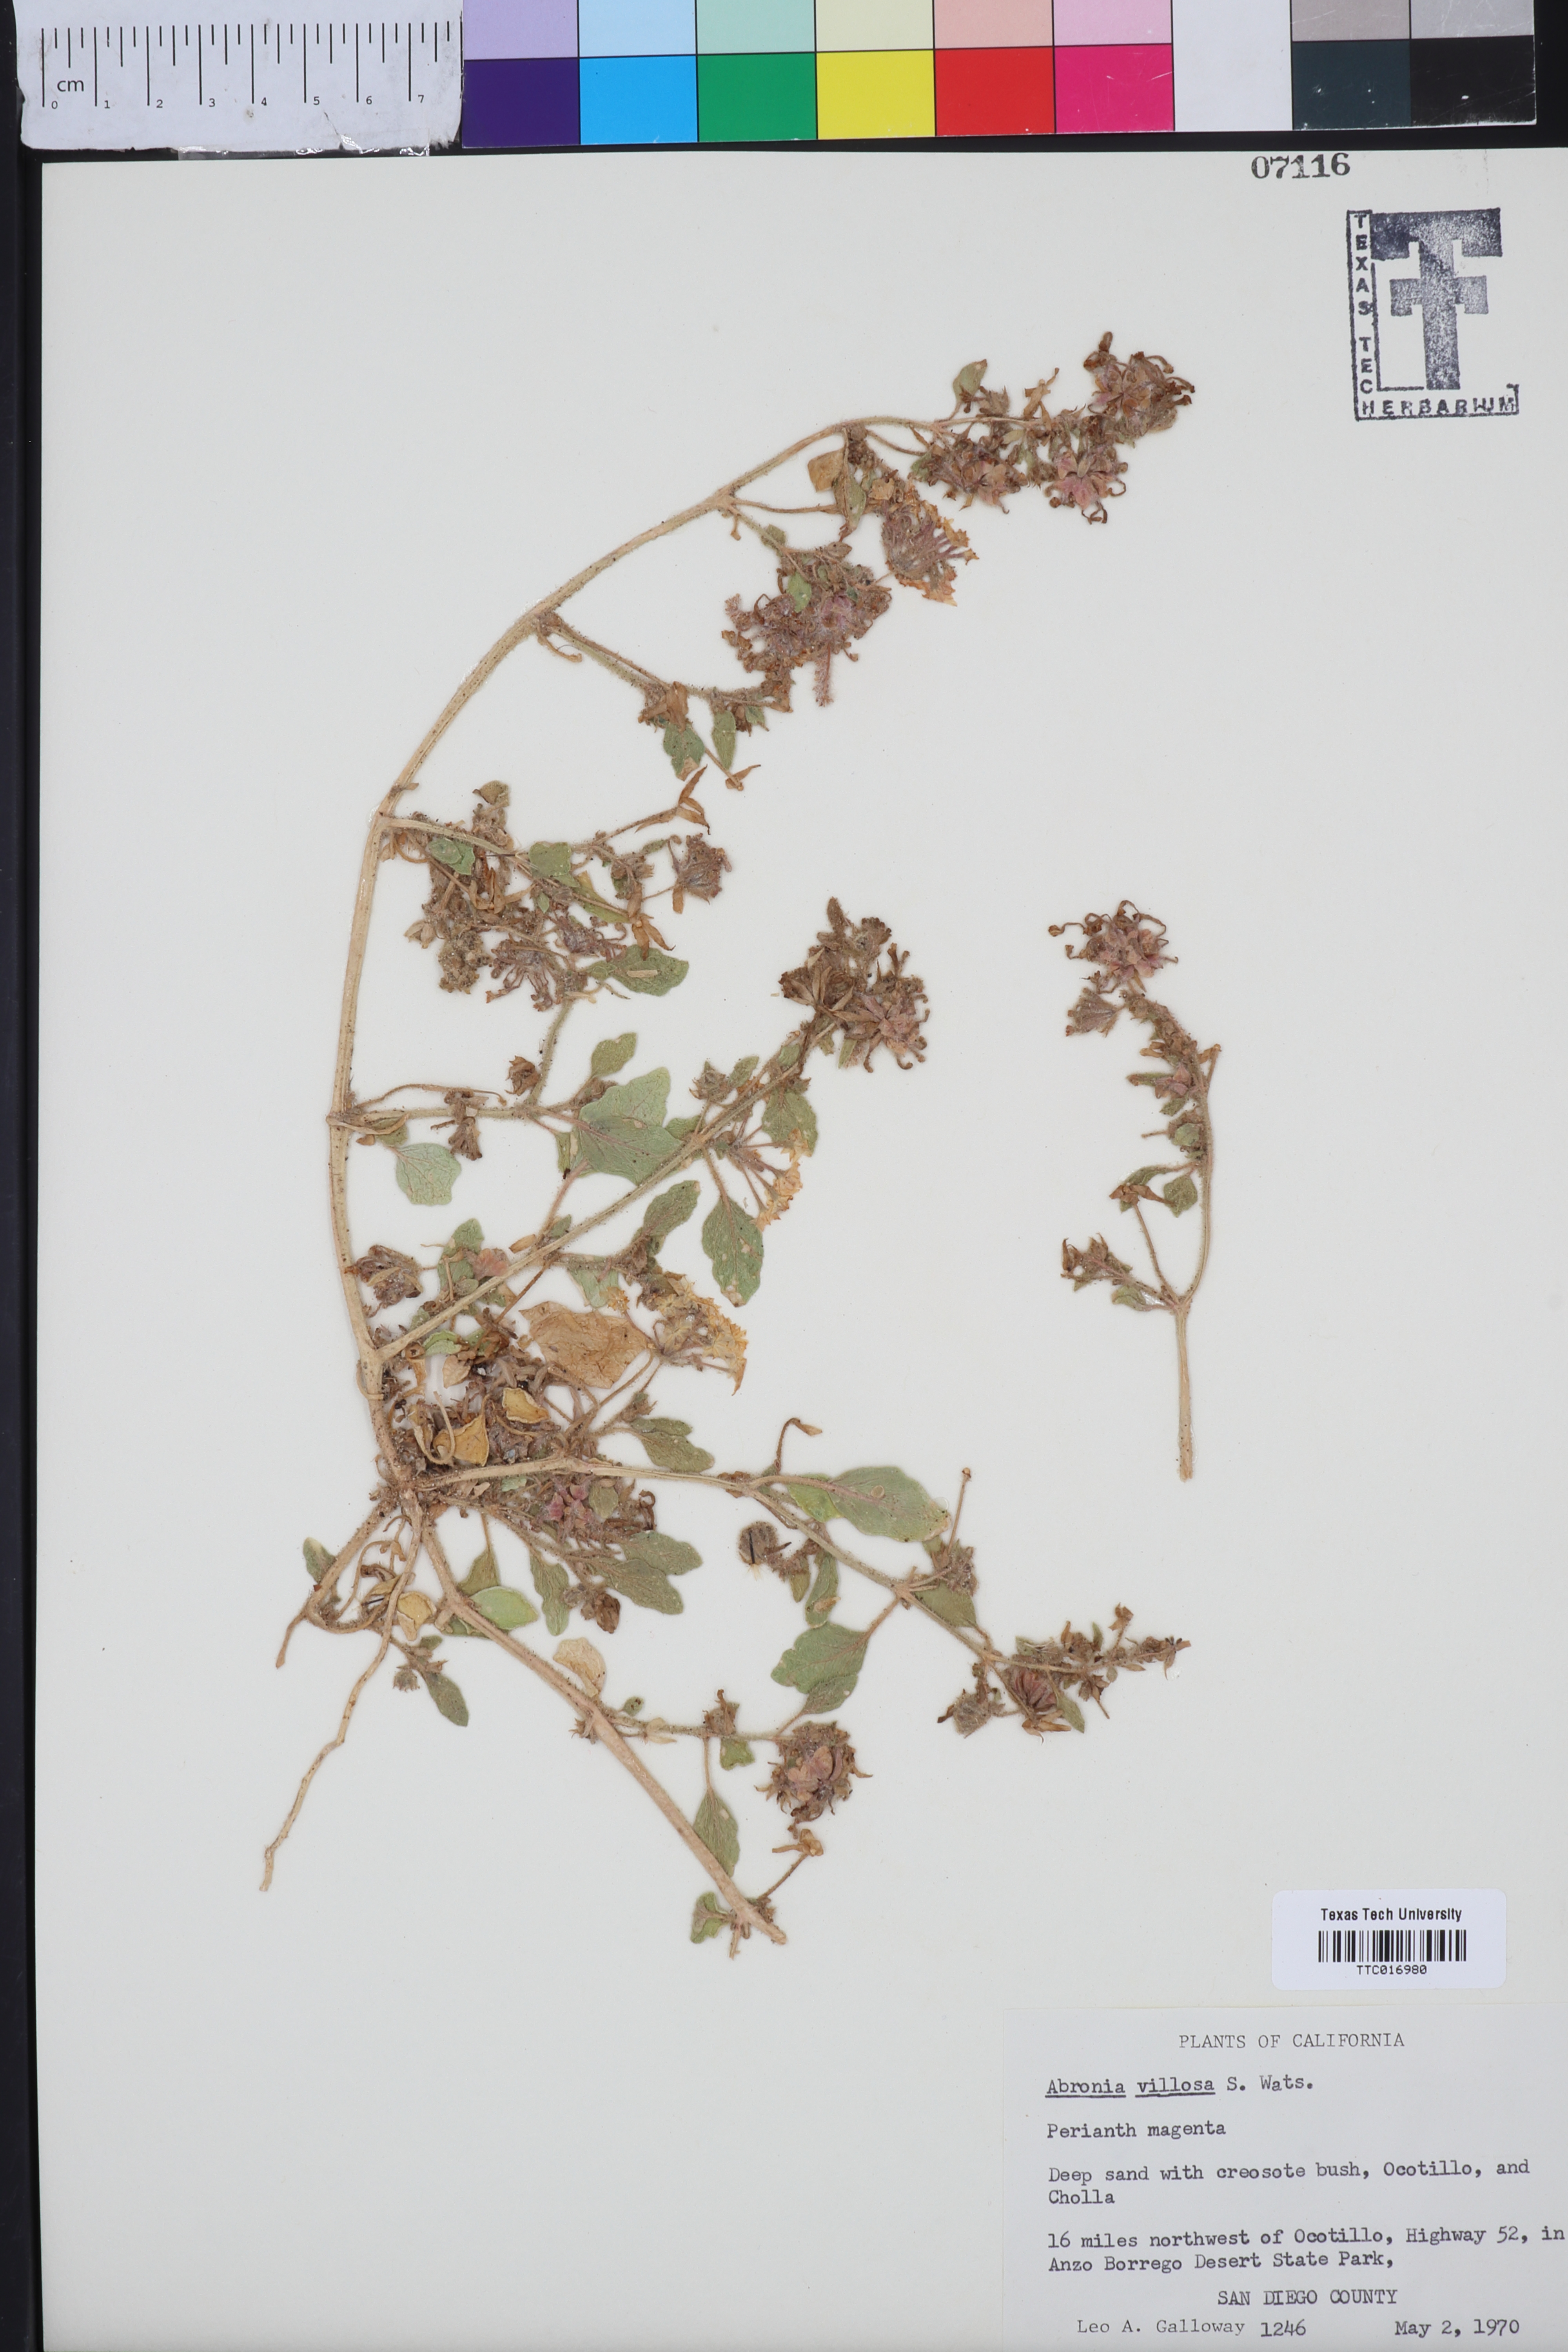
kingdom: Plantae
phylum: Tracheophyta
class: Magnoliopsida
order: Caryophyllales
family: Nyctaginaceae
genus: Abronia
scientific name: Abronia villosa
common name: Desert sand-verbena
